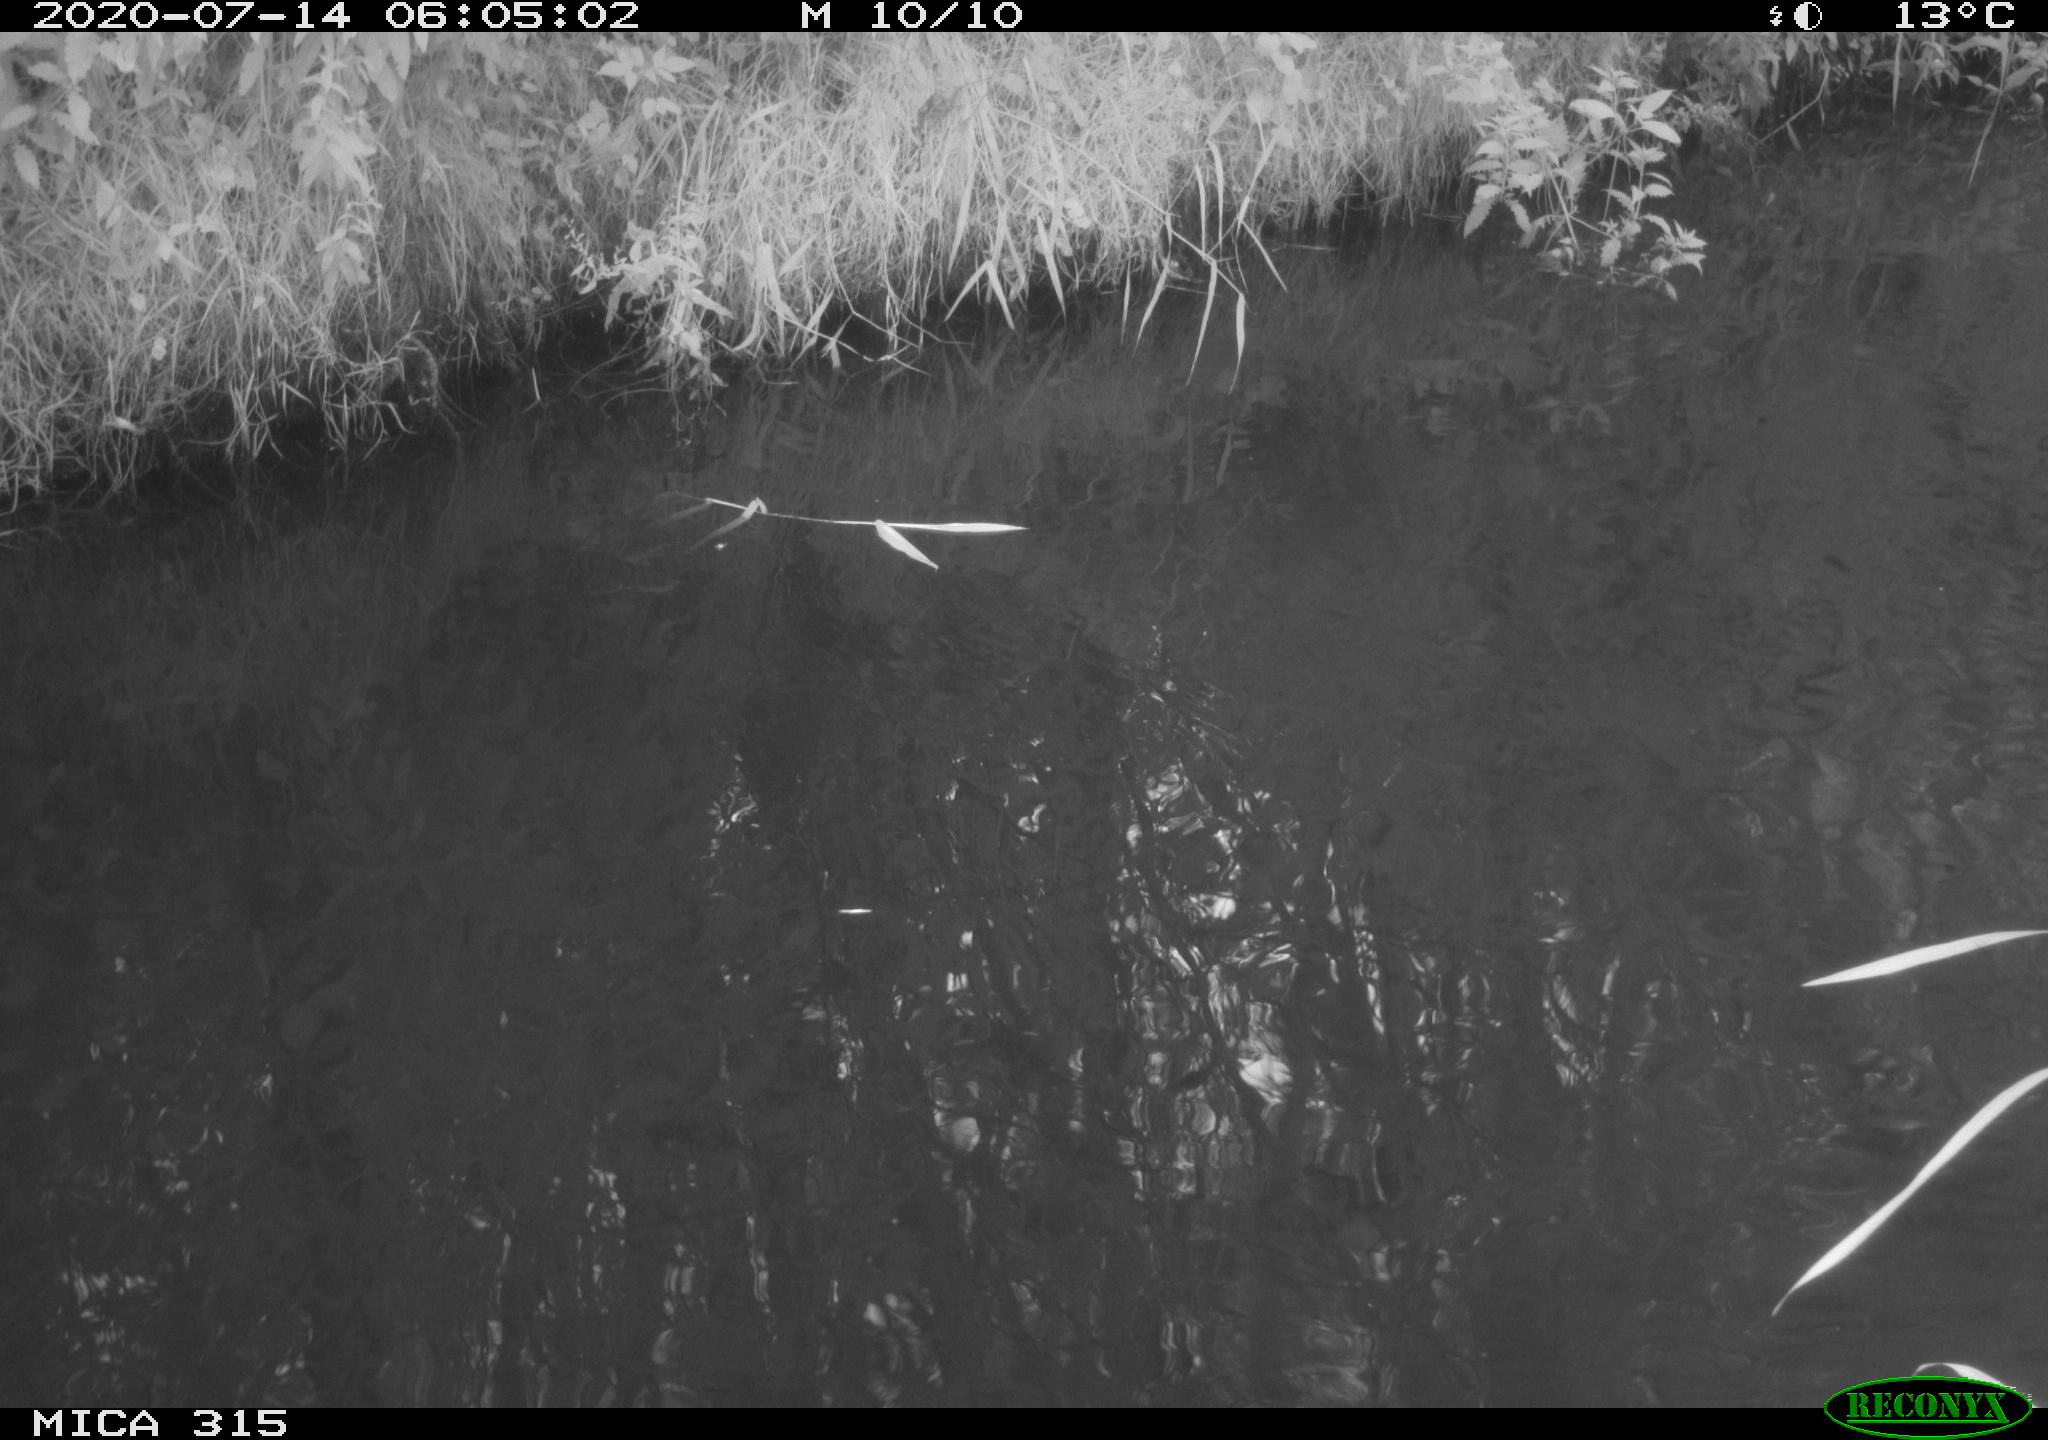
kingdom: Animalia
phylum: Chordata
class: Aves
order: Anseriformes
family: Anatidae
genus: Anas
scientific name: Anas platyrhynchos
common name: Mallard
